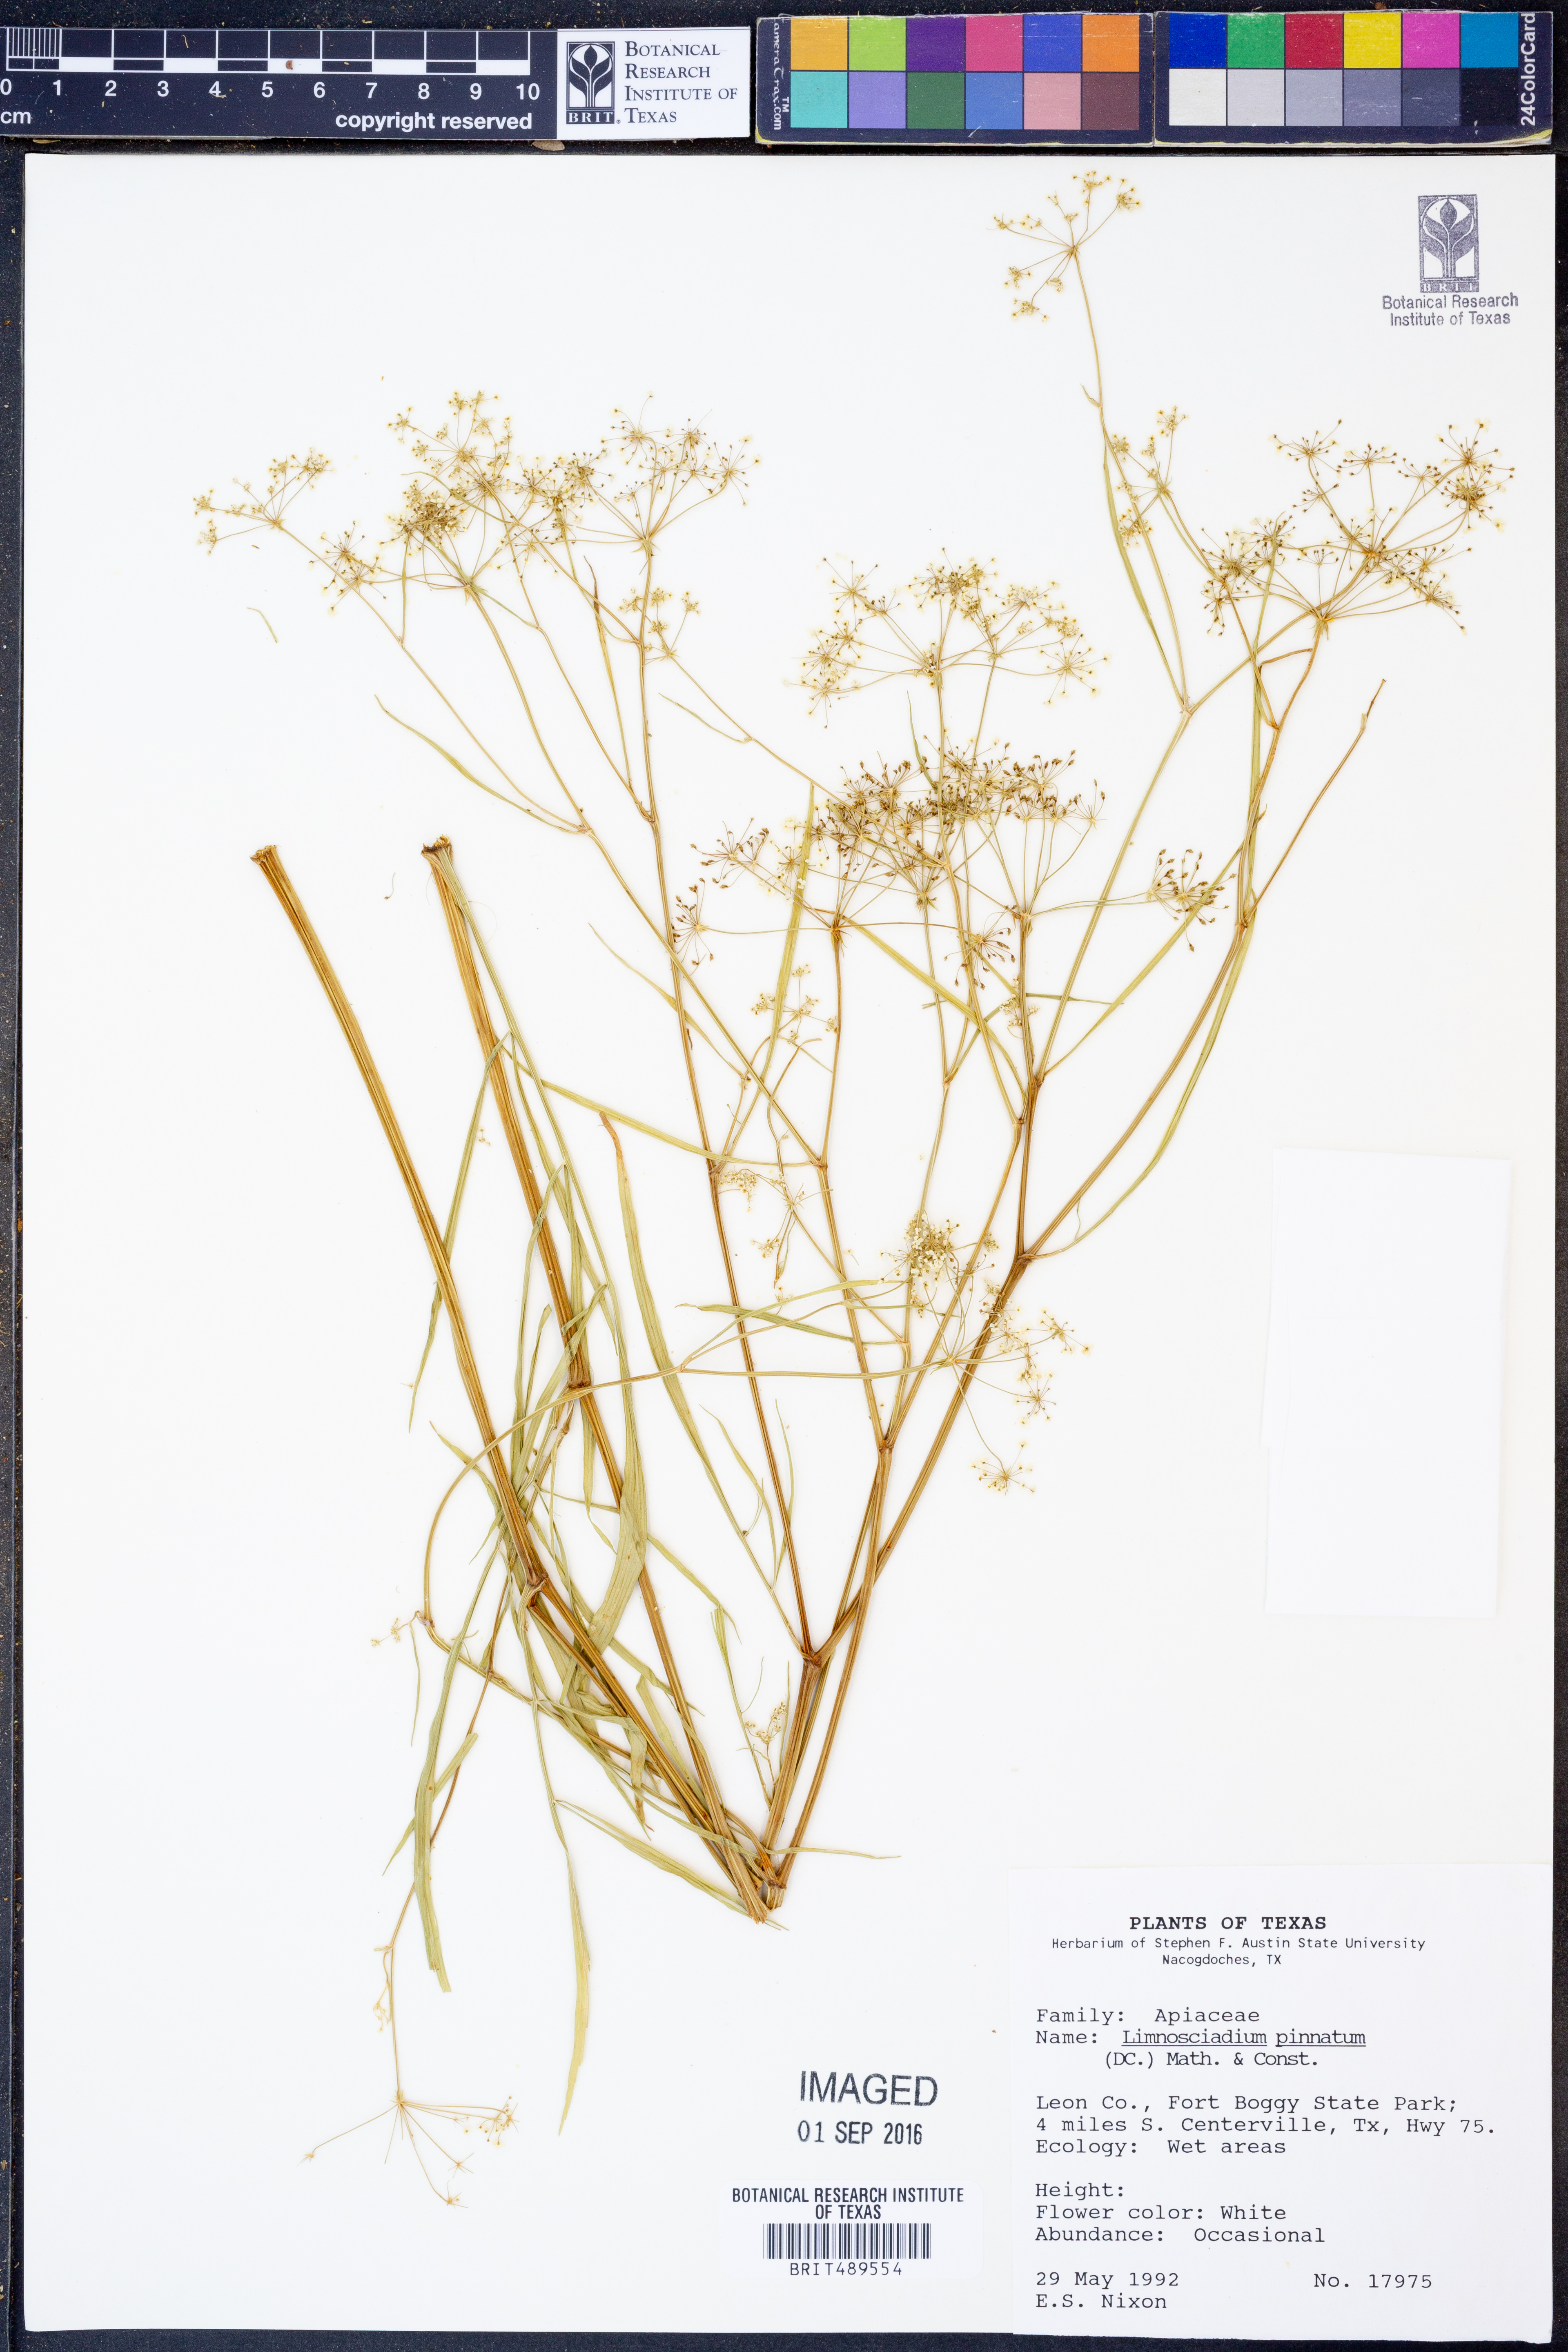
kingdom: Plantae
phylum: Tracheophyta
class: Magnoliopsida
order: Apiales
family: Apiaceae
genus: Limnosciadium
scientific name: Limnosciadium pinnatum
